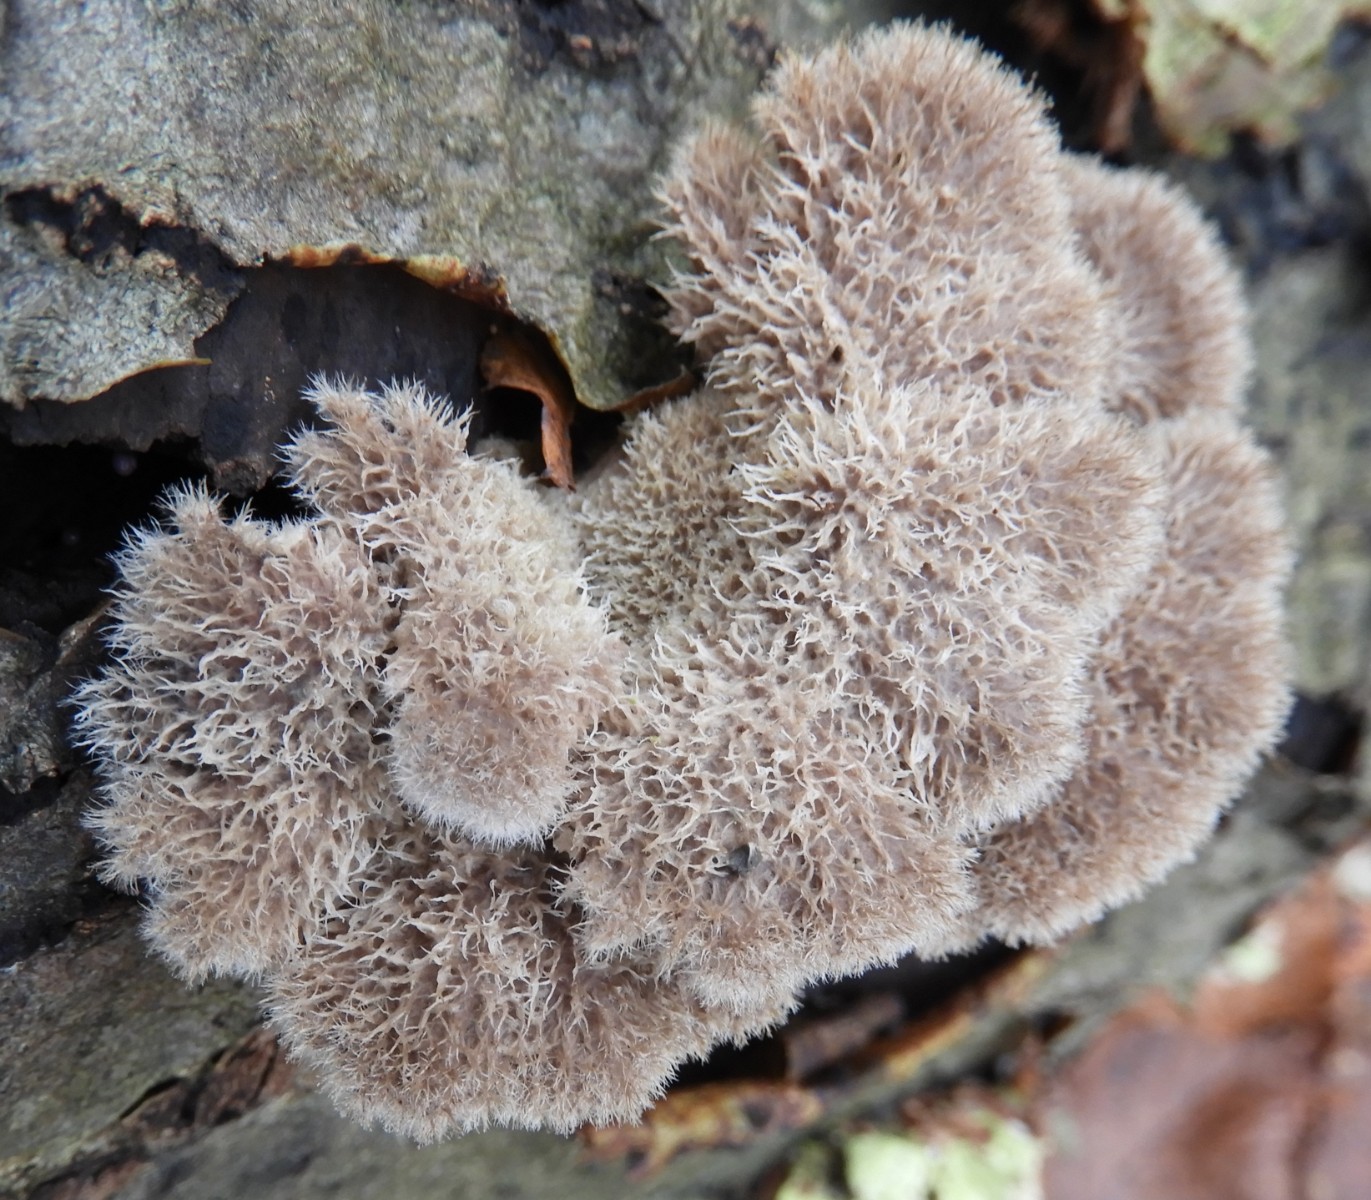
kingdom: Fungi
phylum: Basidiomycota
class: Agaricomycetes
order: Agaricales
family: Schizophyllaceae
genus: Schizophyllum
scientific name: Schizophyllum commune
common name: kløvblad
